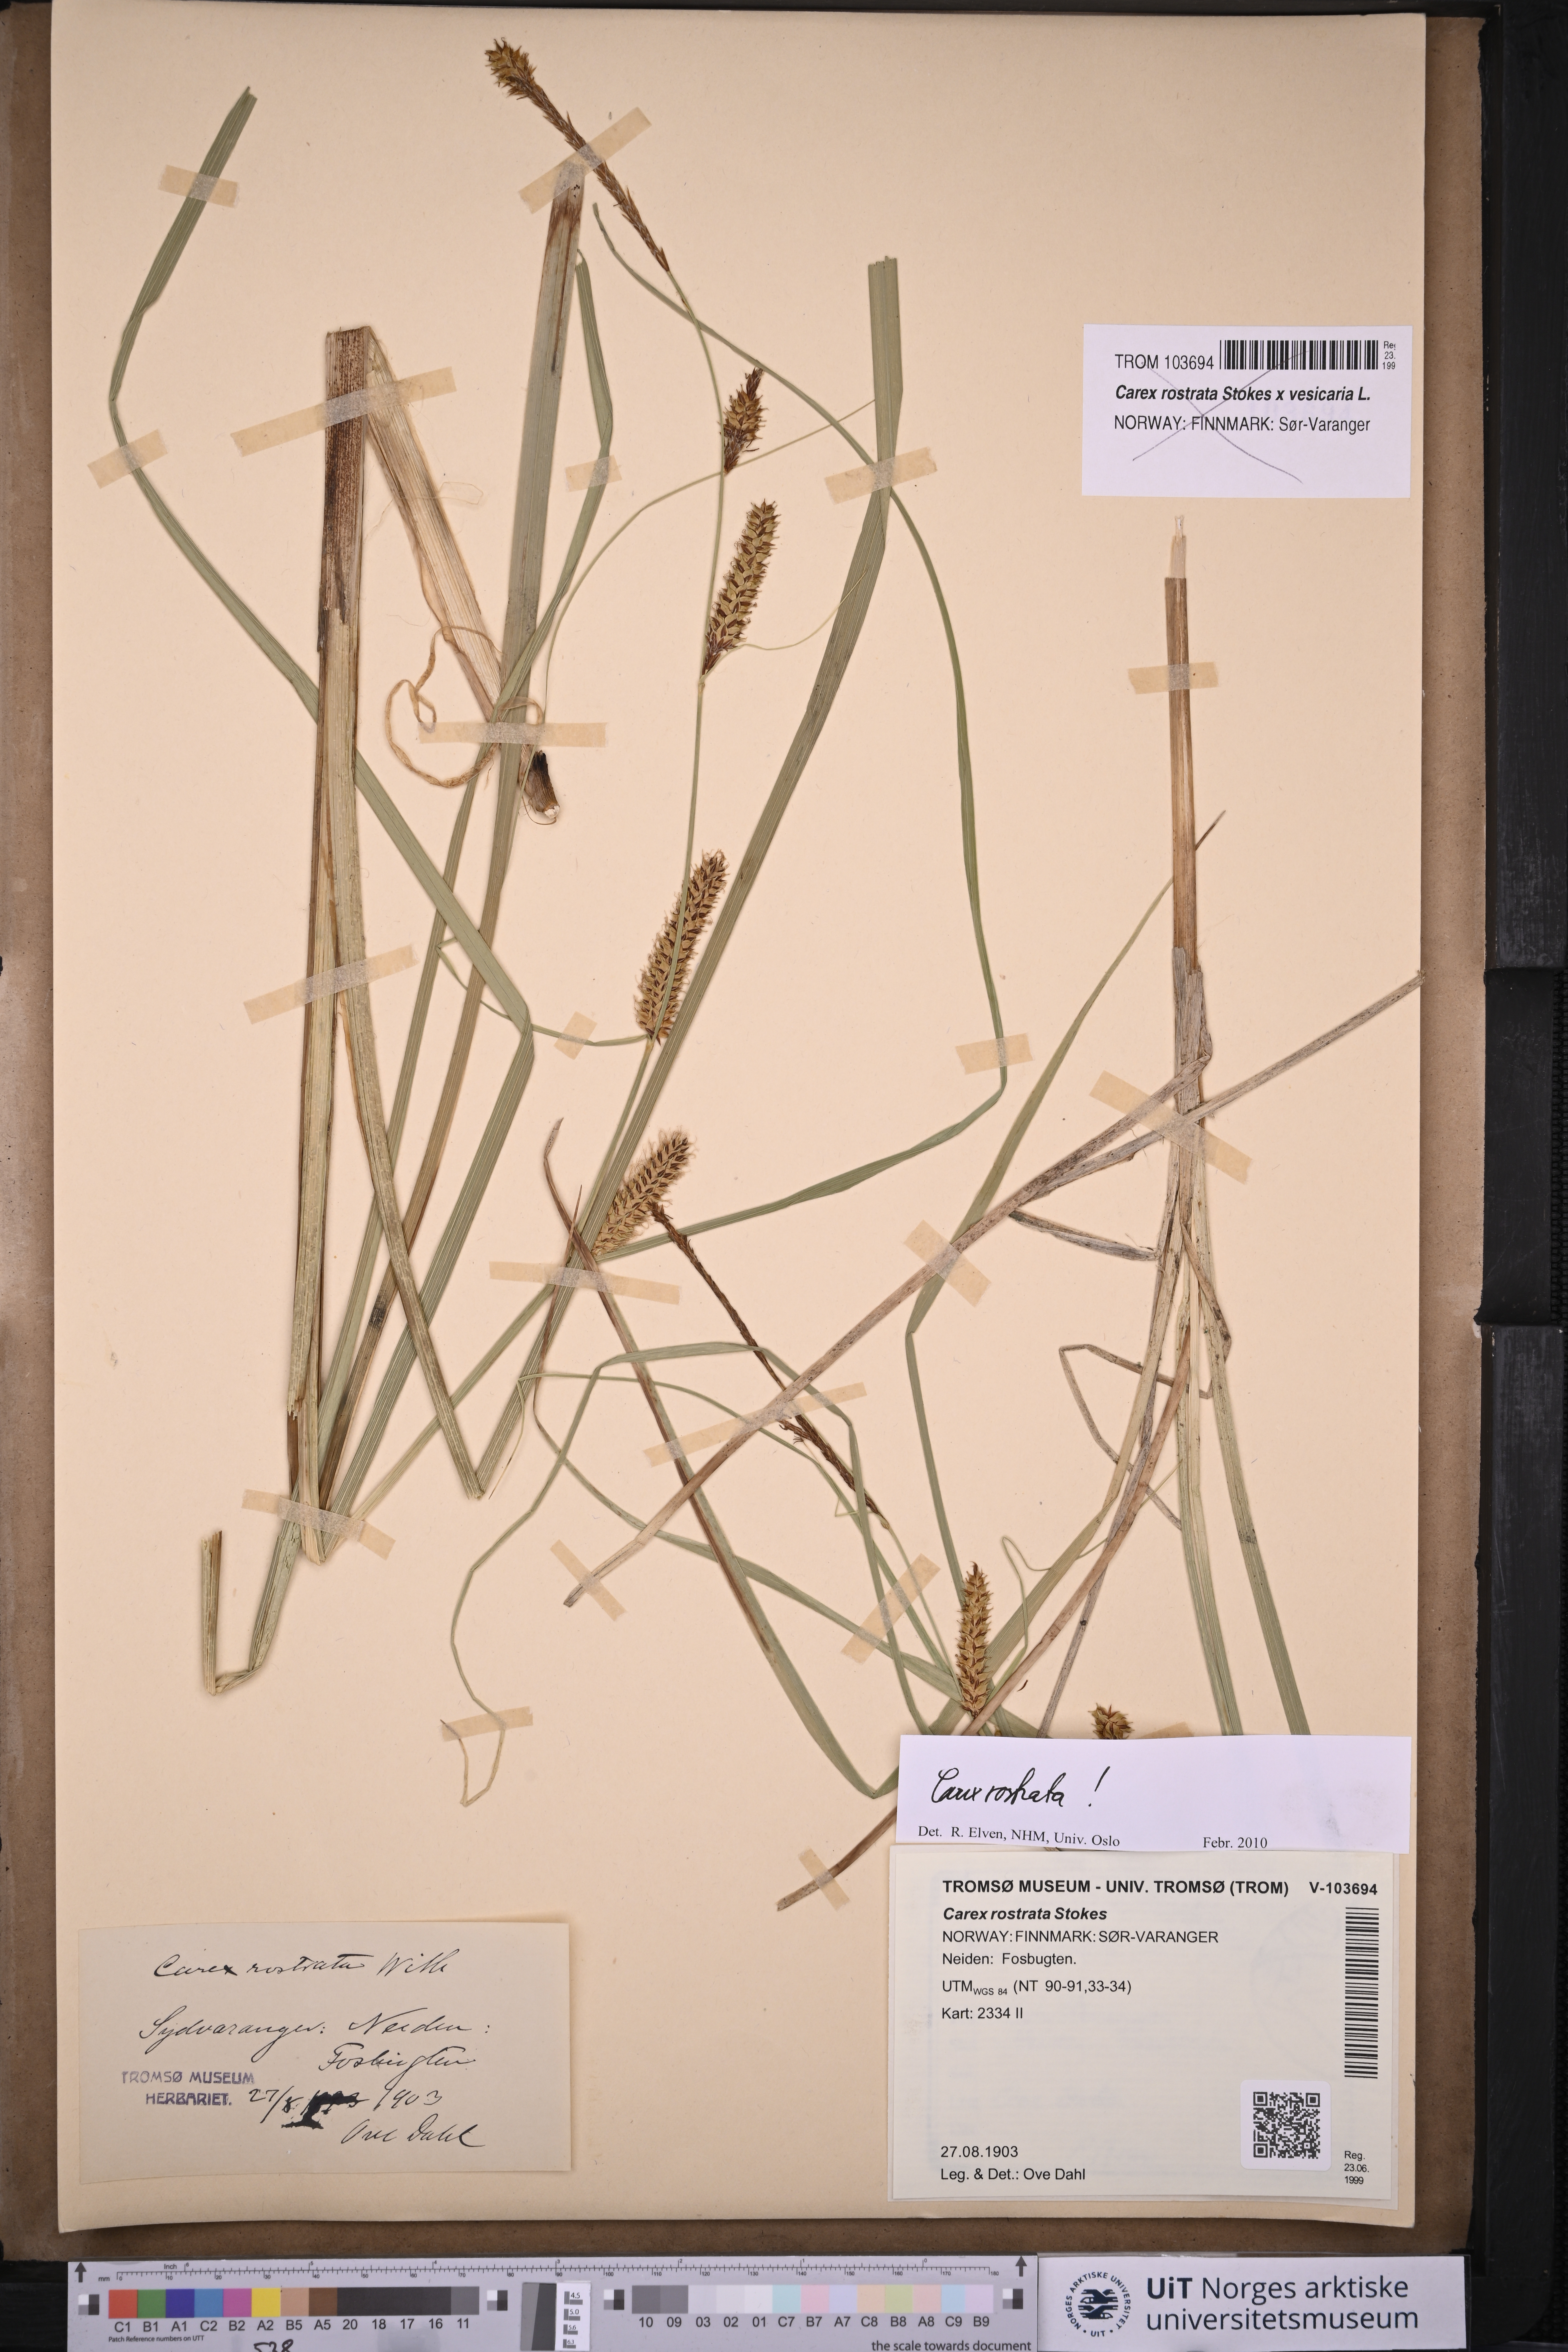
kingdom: Plantae
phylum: Tracheophyta
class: Liliopsida
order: Poales
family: Cyperaceae
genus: Carex
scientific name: Carex rostrata
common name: Bottle sedge
